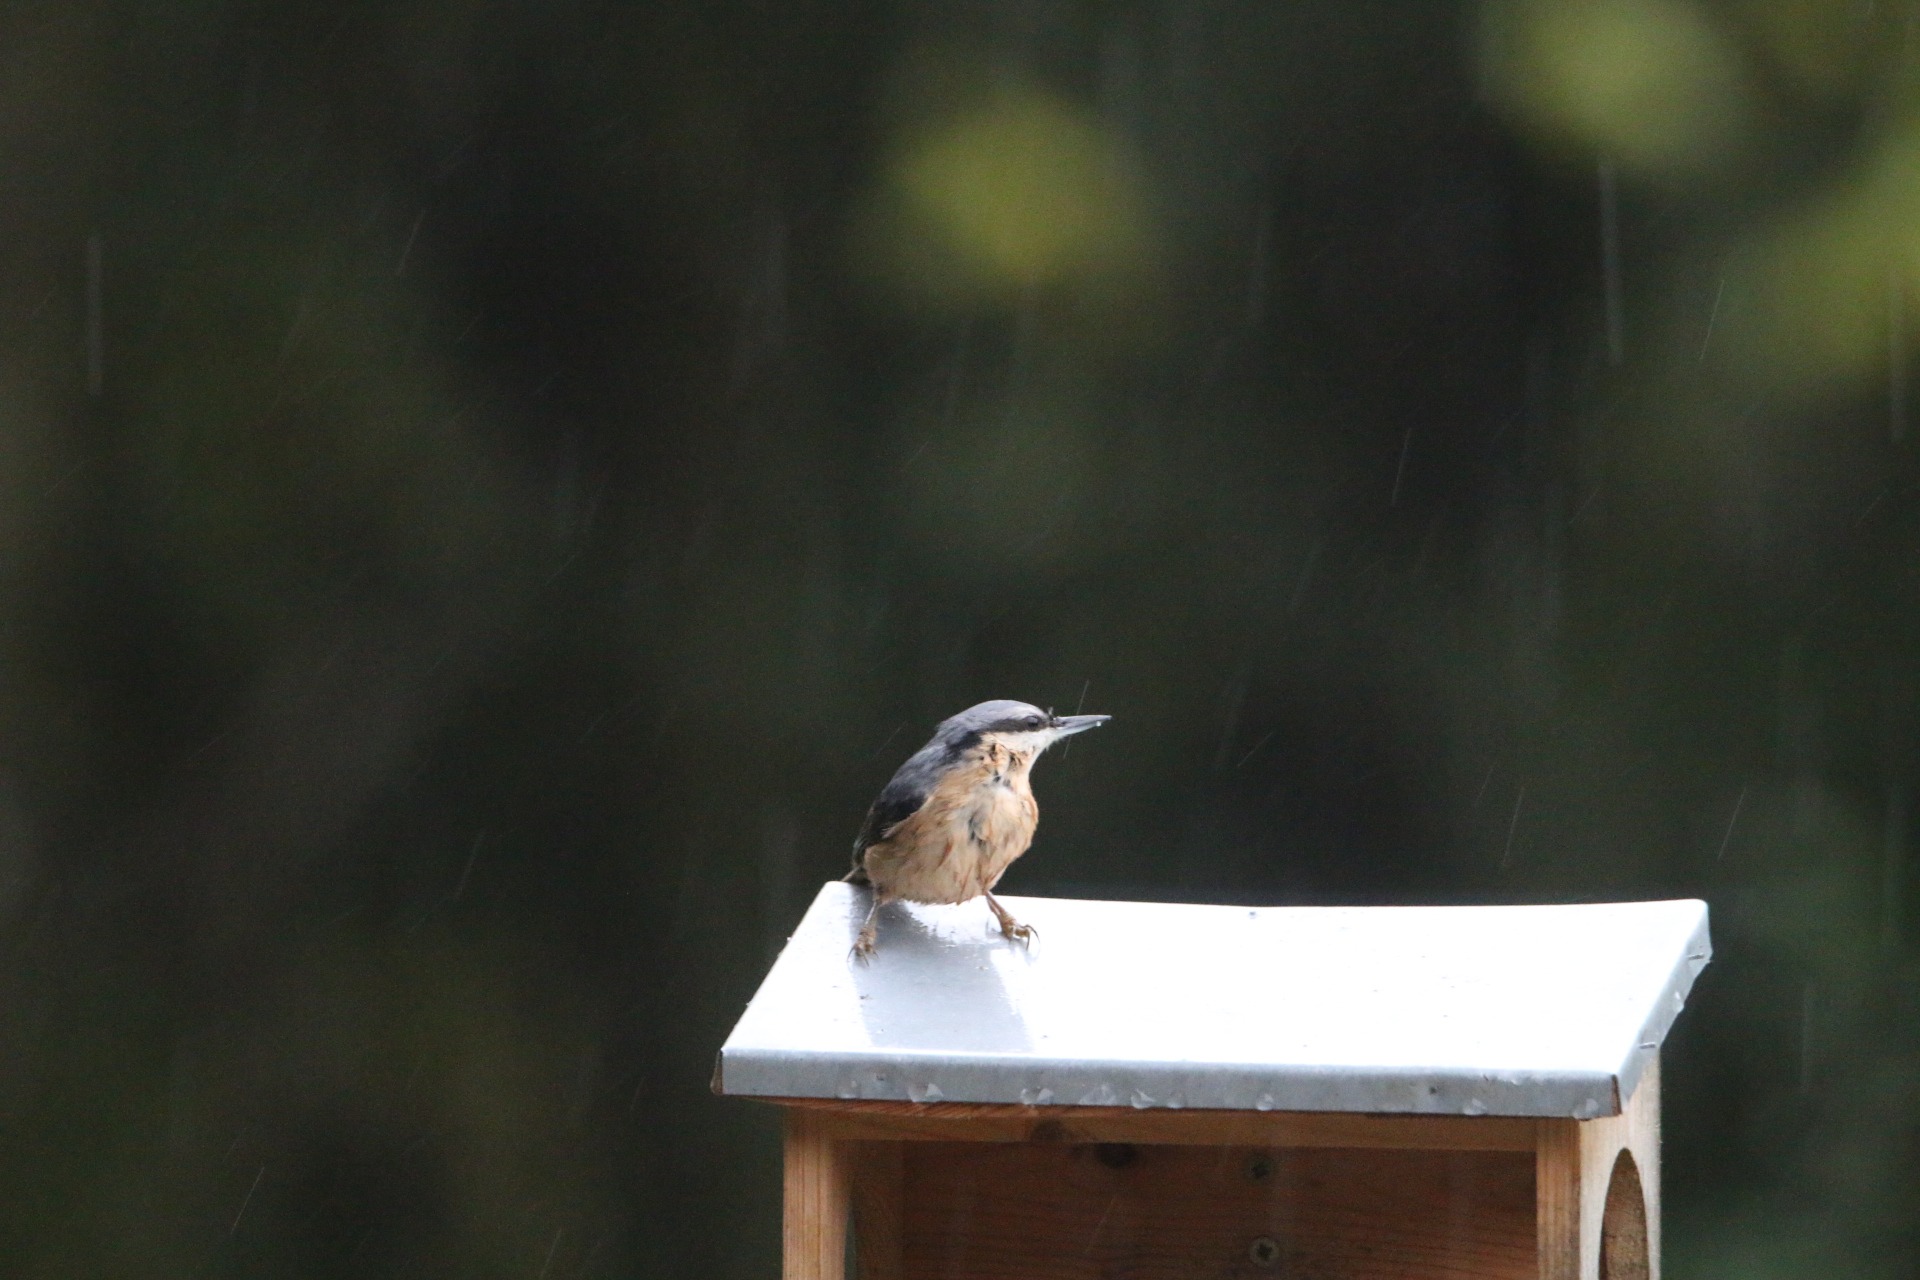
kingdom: Animalia
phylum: Chordata
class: Aves
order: Passeriformes
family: Sittidae
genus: Sitta
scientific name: Sitta europaea
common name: Spætmejse
